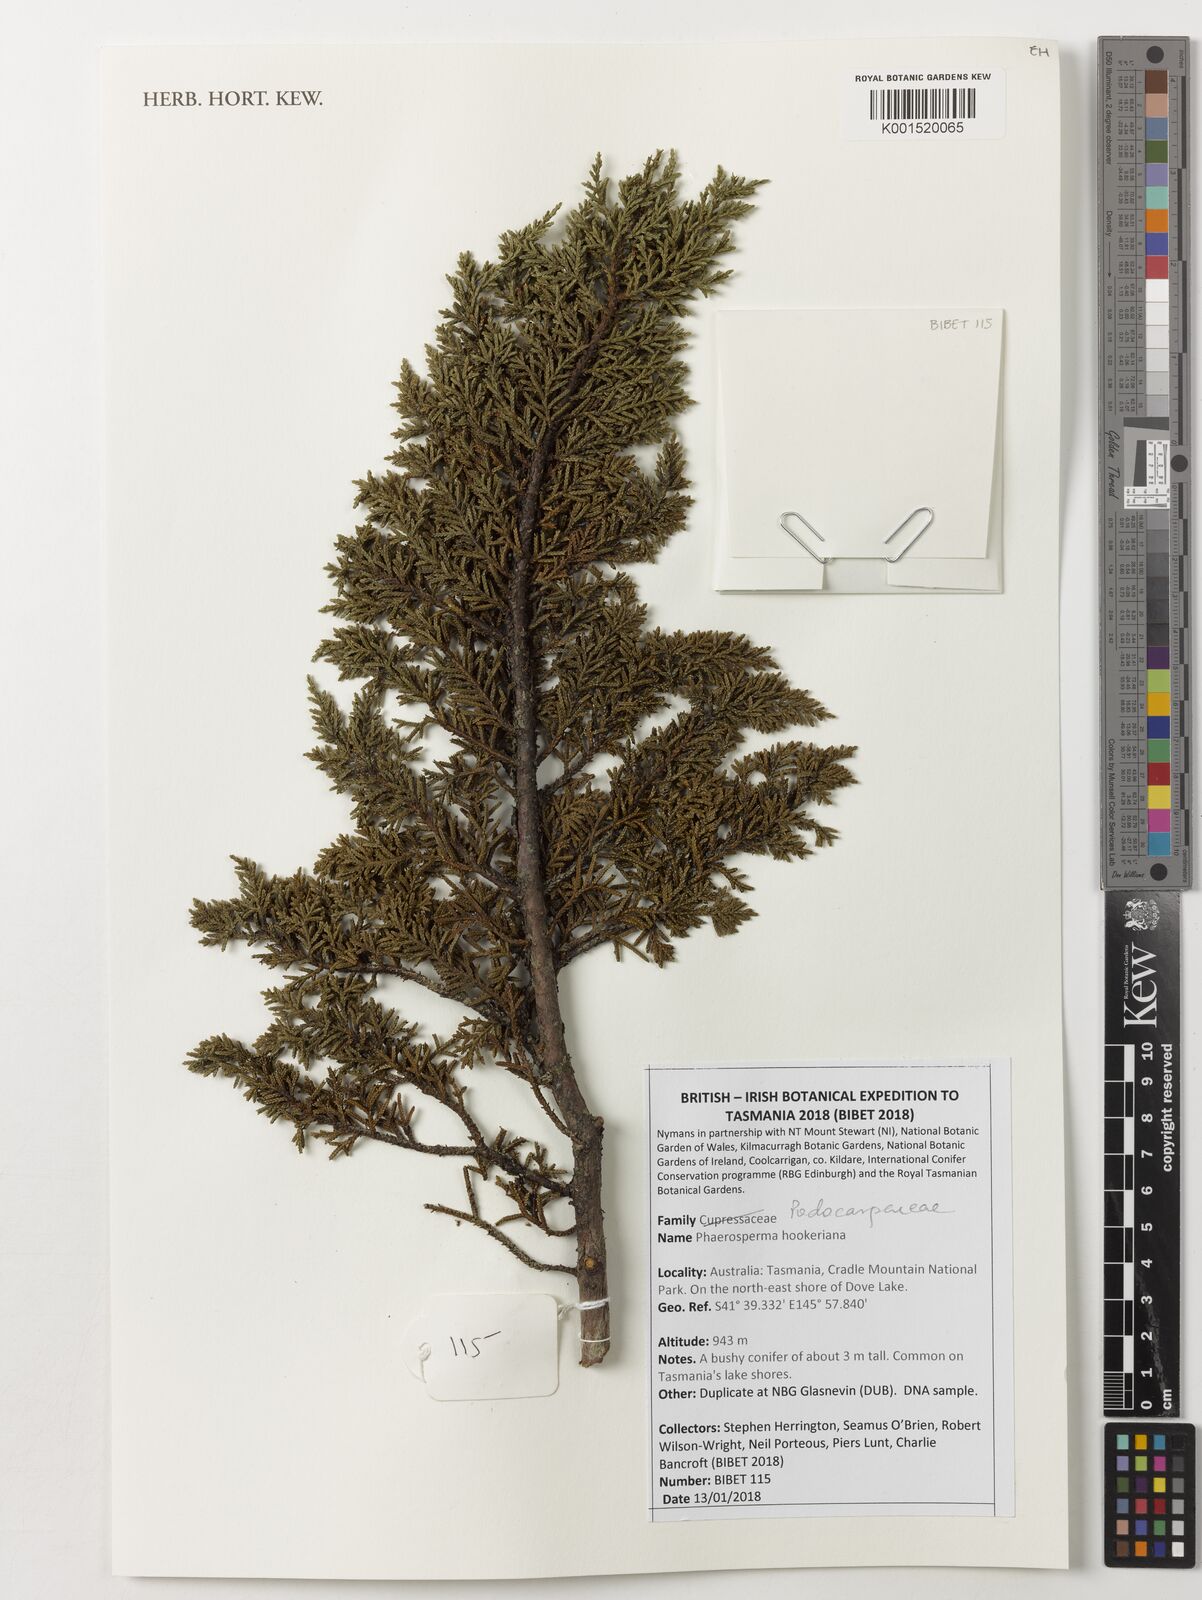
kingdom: Plantae
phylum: Tracheophyta
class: Pinopsida
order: Pinales
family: Podocarpaceae
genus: Pherosphaera
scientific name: Pherosphaera hookeriana
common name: Mount mawson pine
